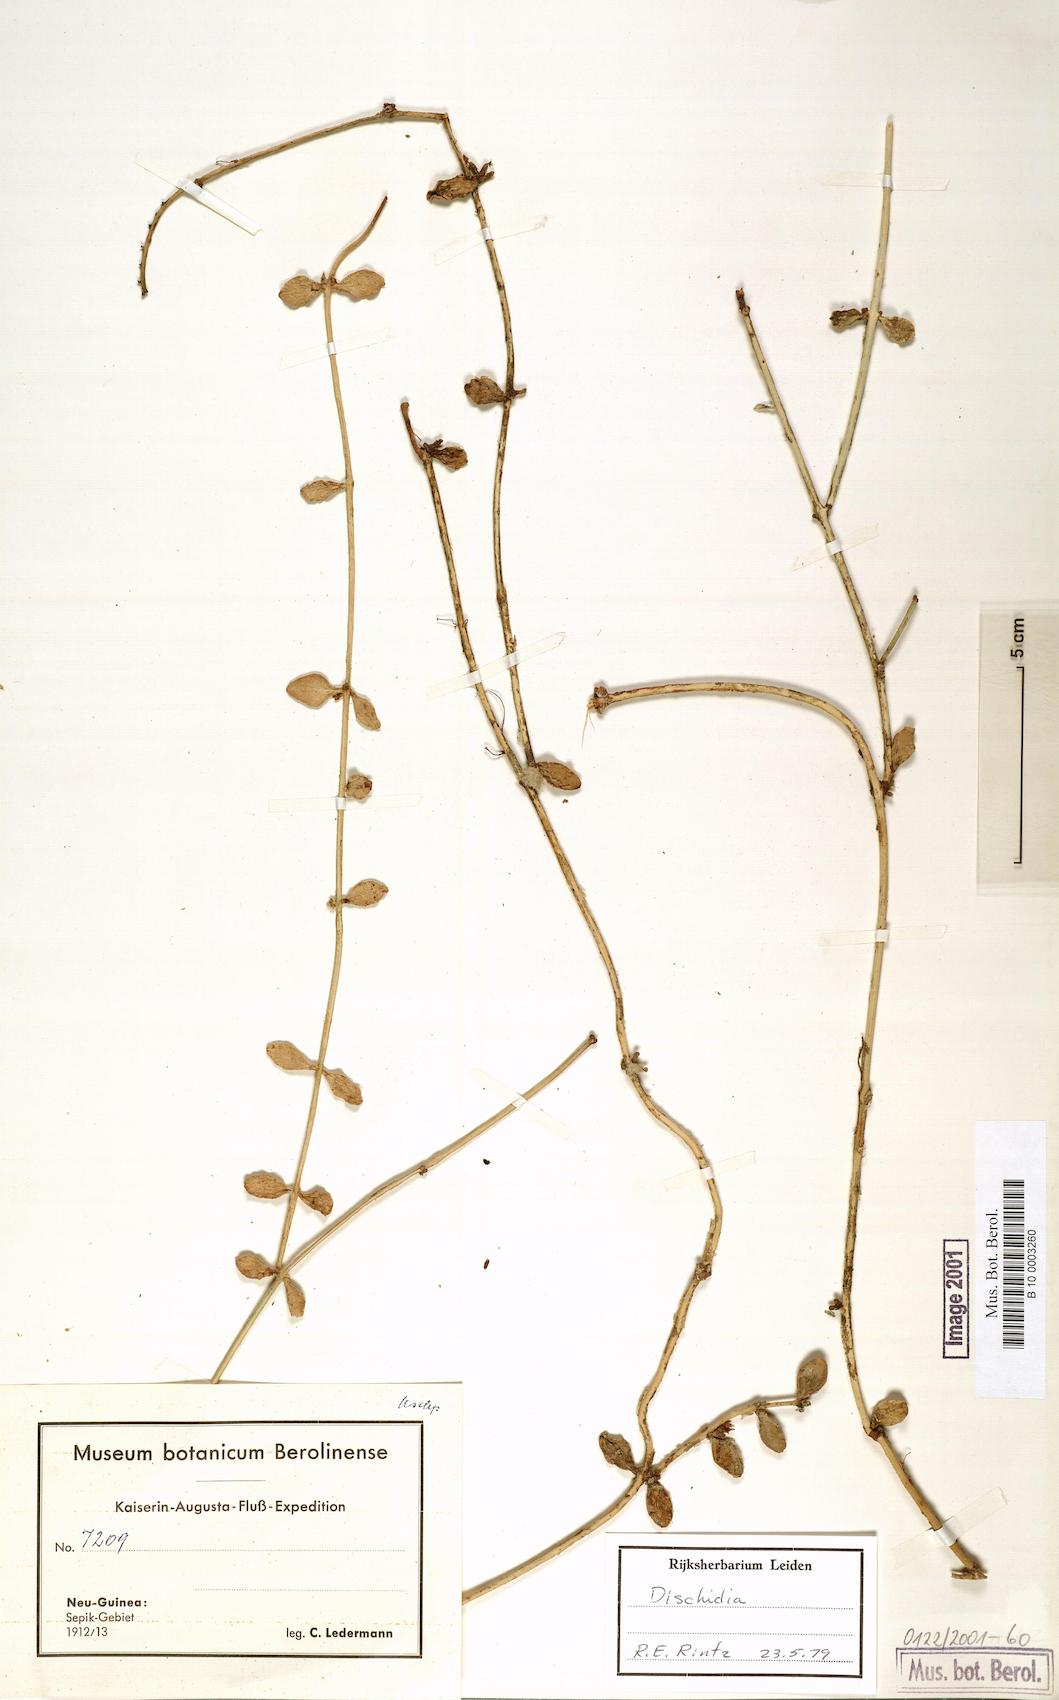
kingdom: Plantae
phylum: Tracheophyta
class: Magnoliopsida
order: Gentianales
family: Apocynaceae
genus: Dischidia
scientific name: Dischidia
